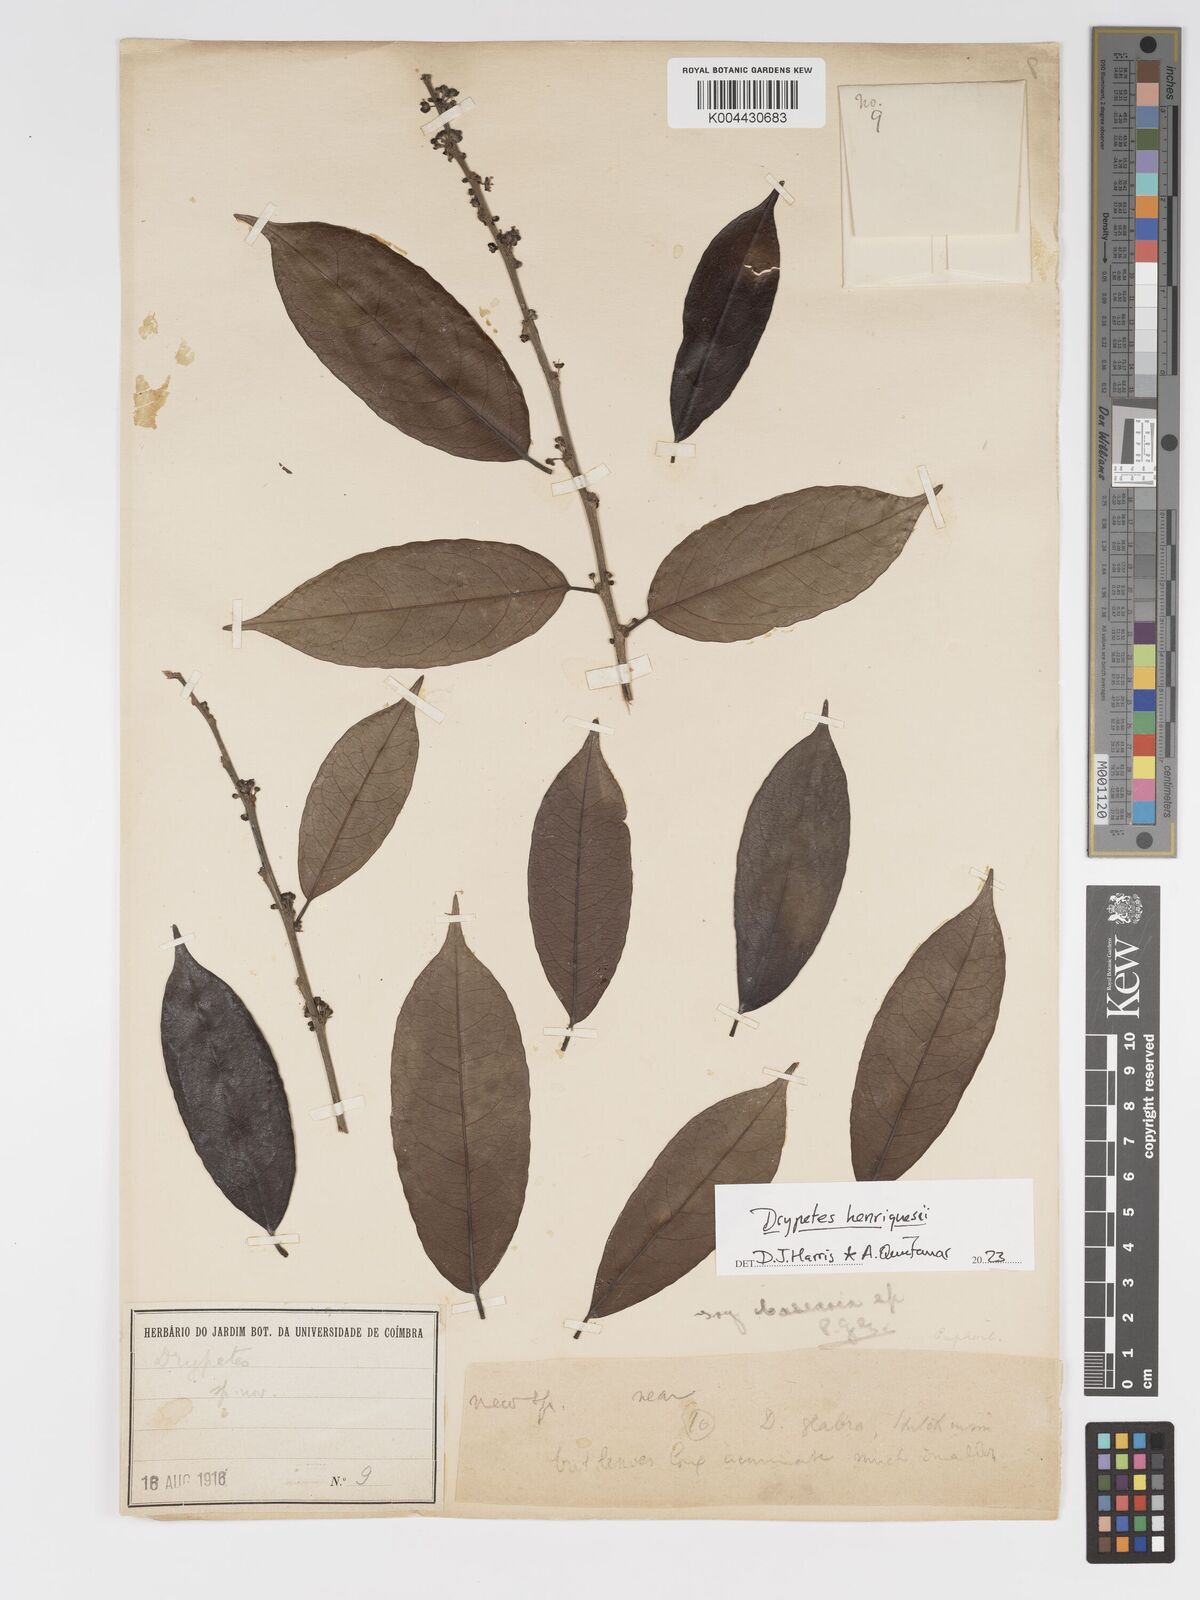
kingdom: Plantae
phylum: Tracheophyta
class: Magnoliopsida
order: Malpighiales
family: Putranjivaceae
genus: Drypetes
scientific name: Drypetes henriquesii
